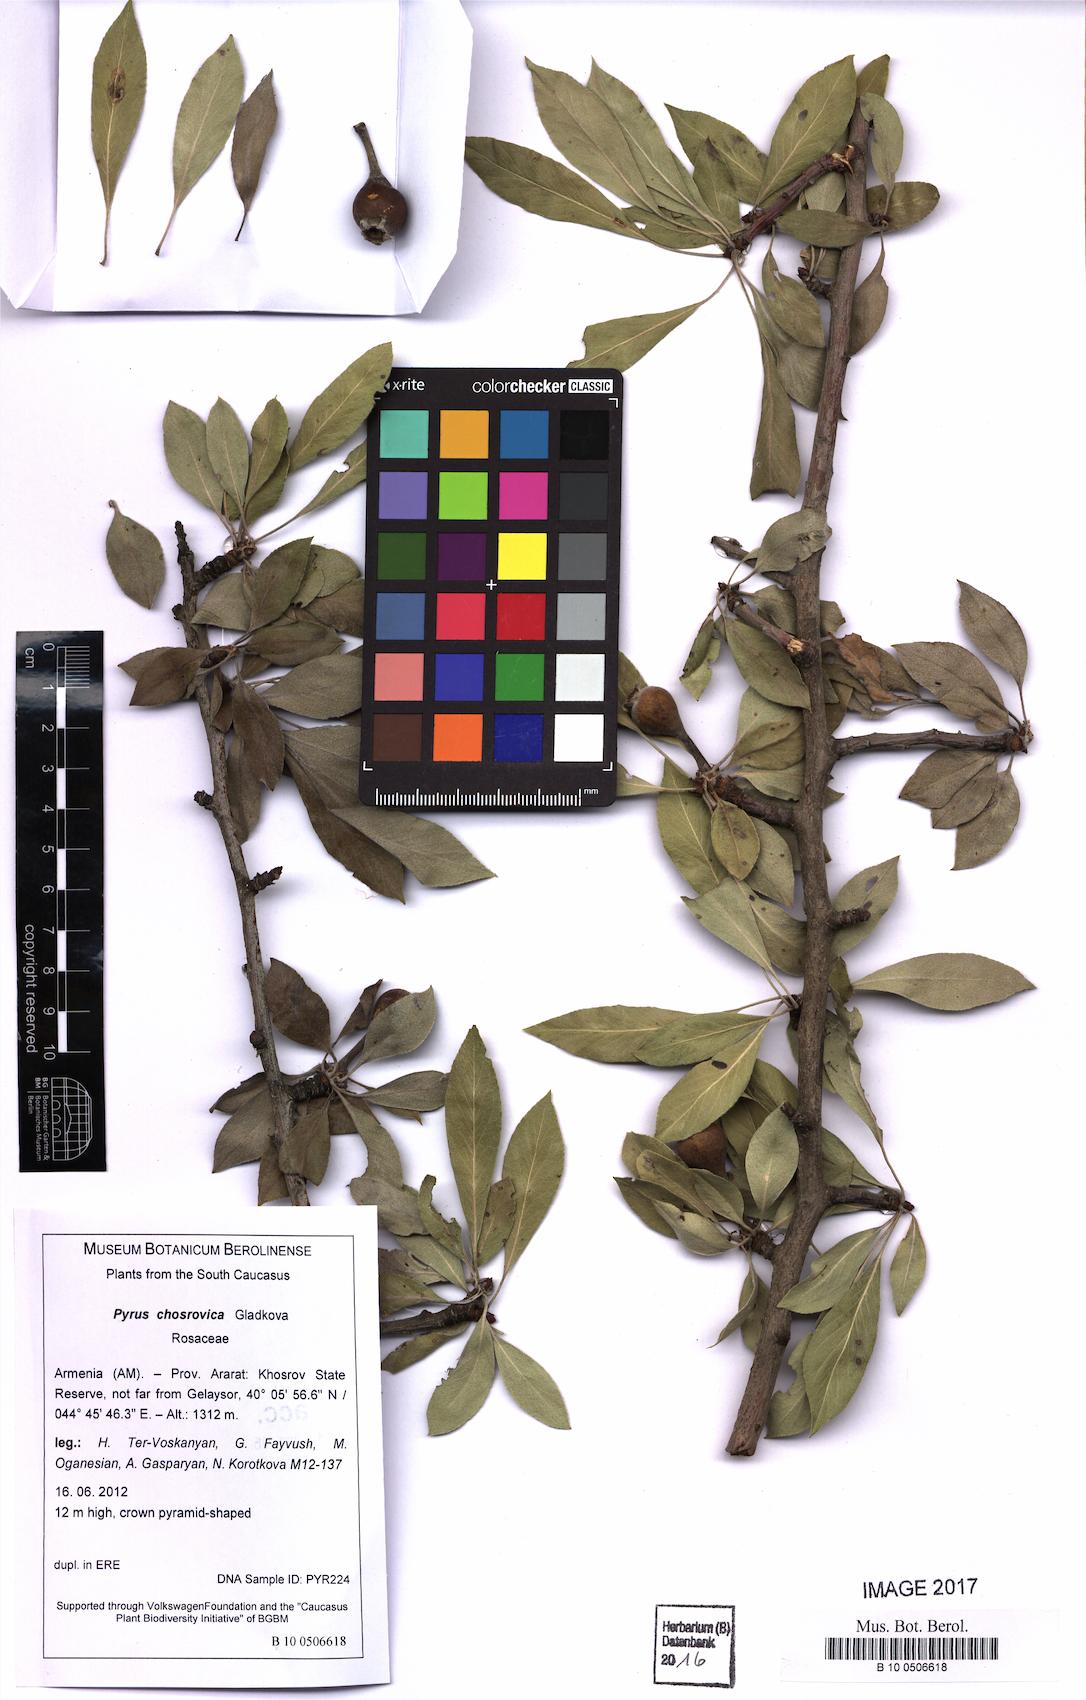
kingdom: Plantae
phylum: Tracheophyta
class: Magnoliopsida
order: Rosales
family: Rosaceae
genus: Pyrus
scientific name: Pyrus chosrovica
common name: Khosrovian pear
